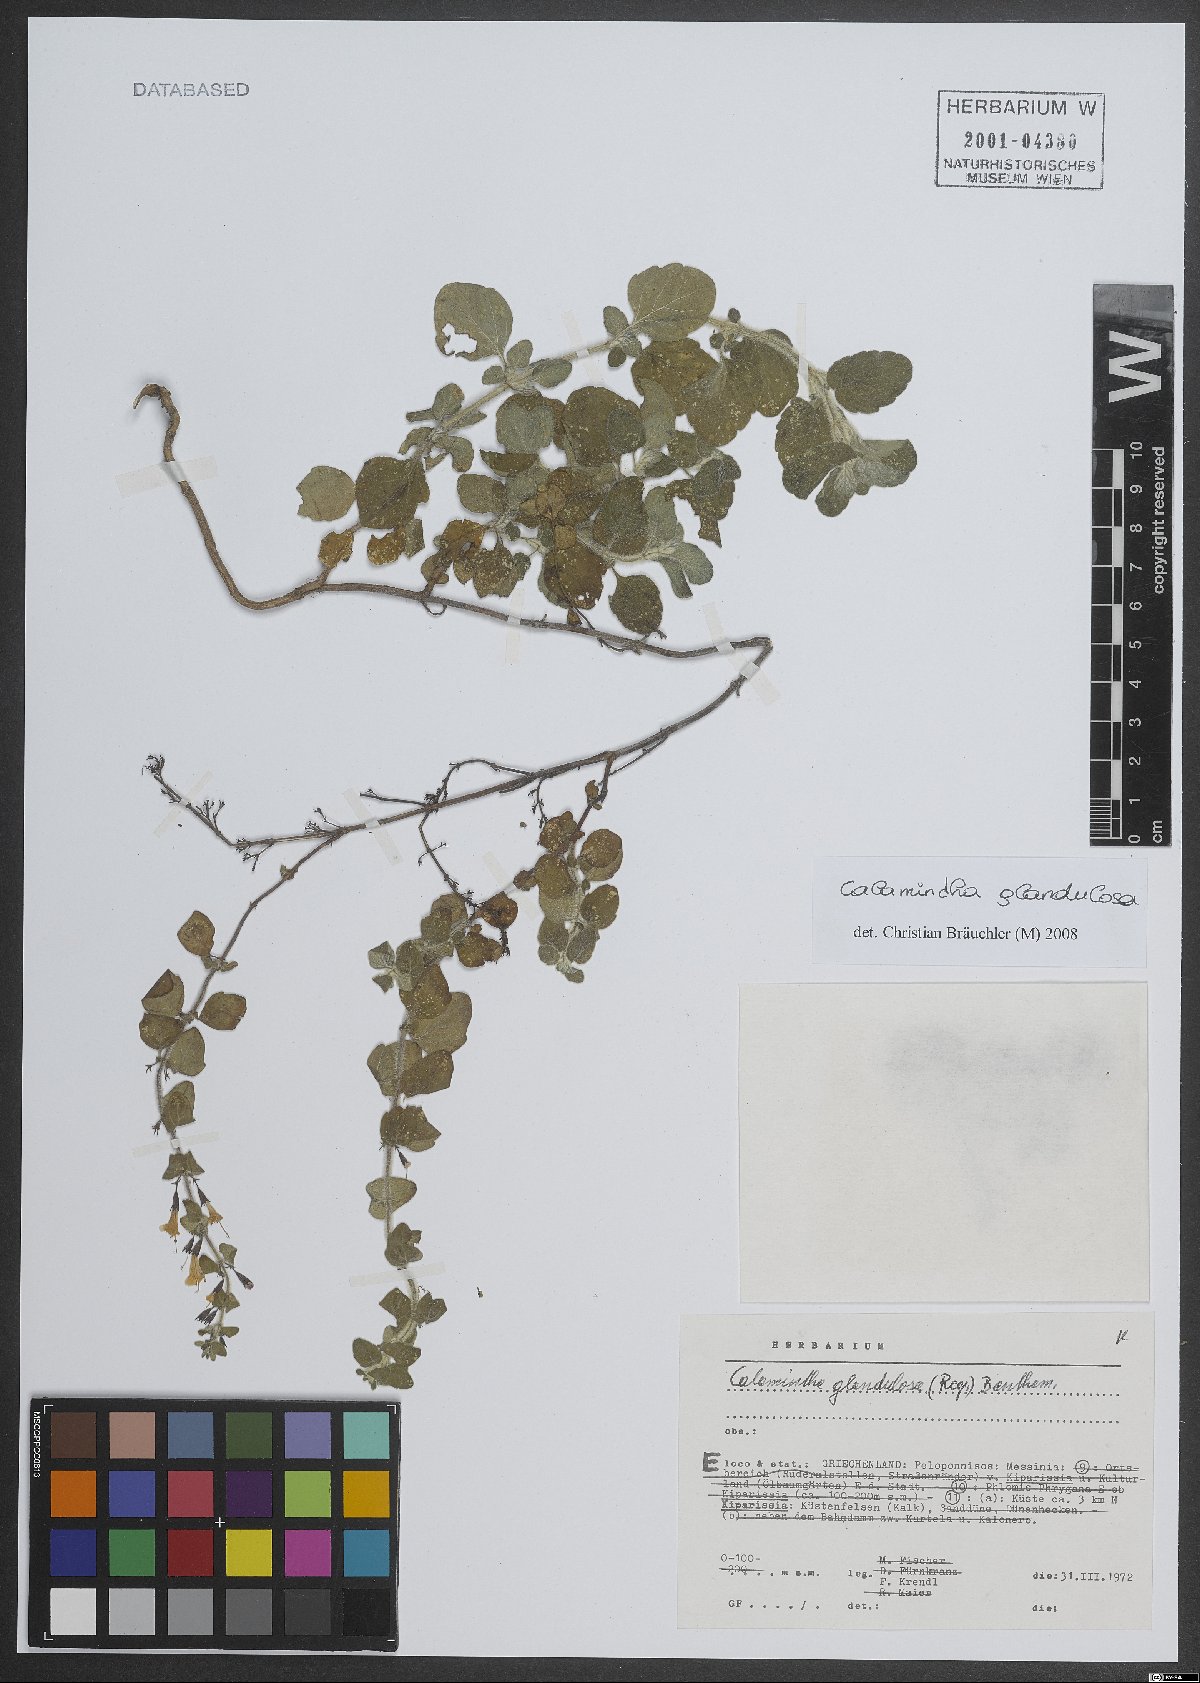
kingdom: Plantae
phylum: Tracheophyta
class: Magnoliopsida
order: Lamiales
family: Lamiaceae
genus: Clinopodium
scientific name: Clinopodium nepeta
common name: Lesser calamint
